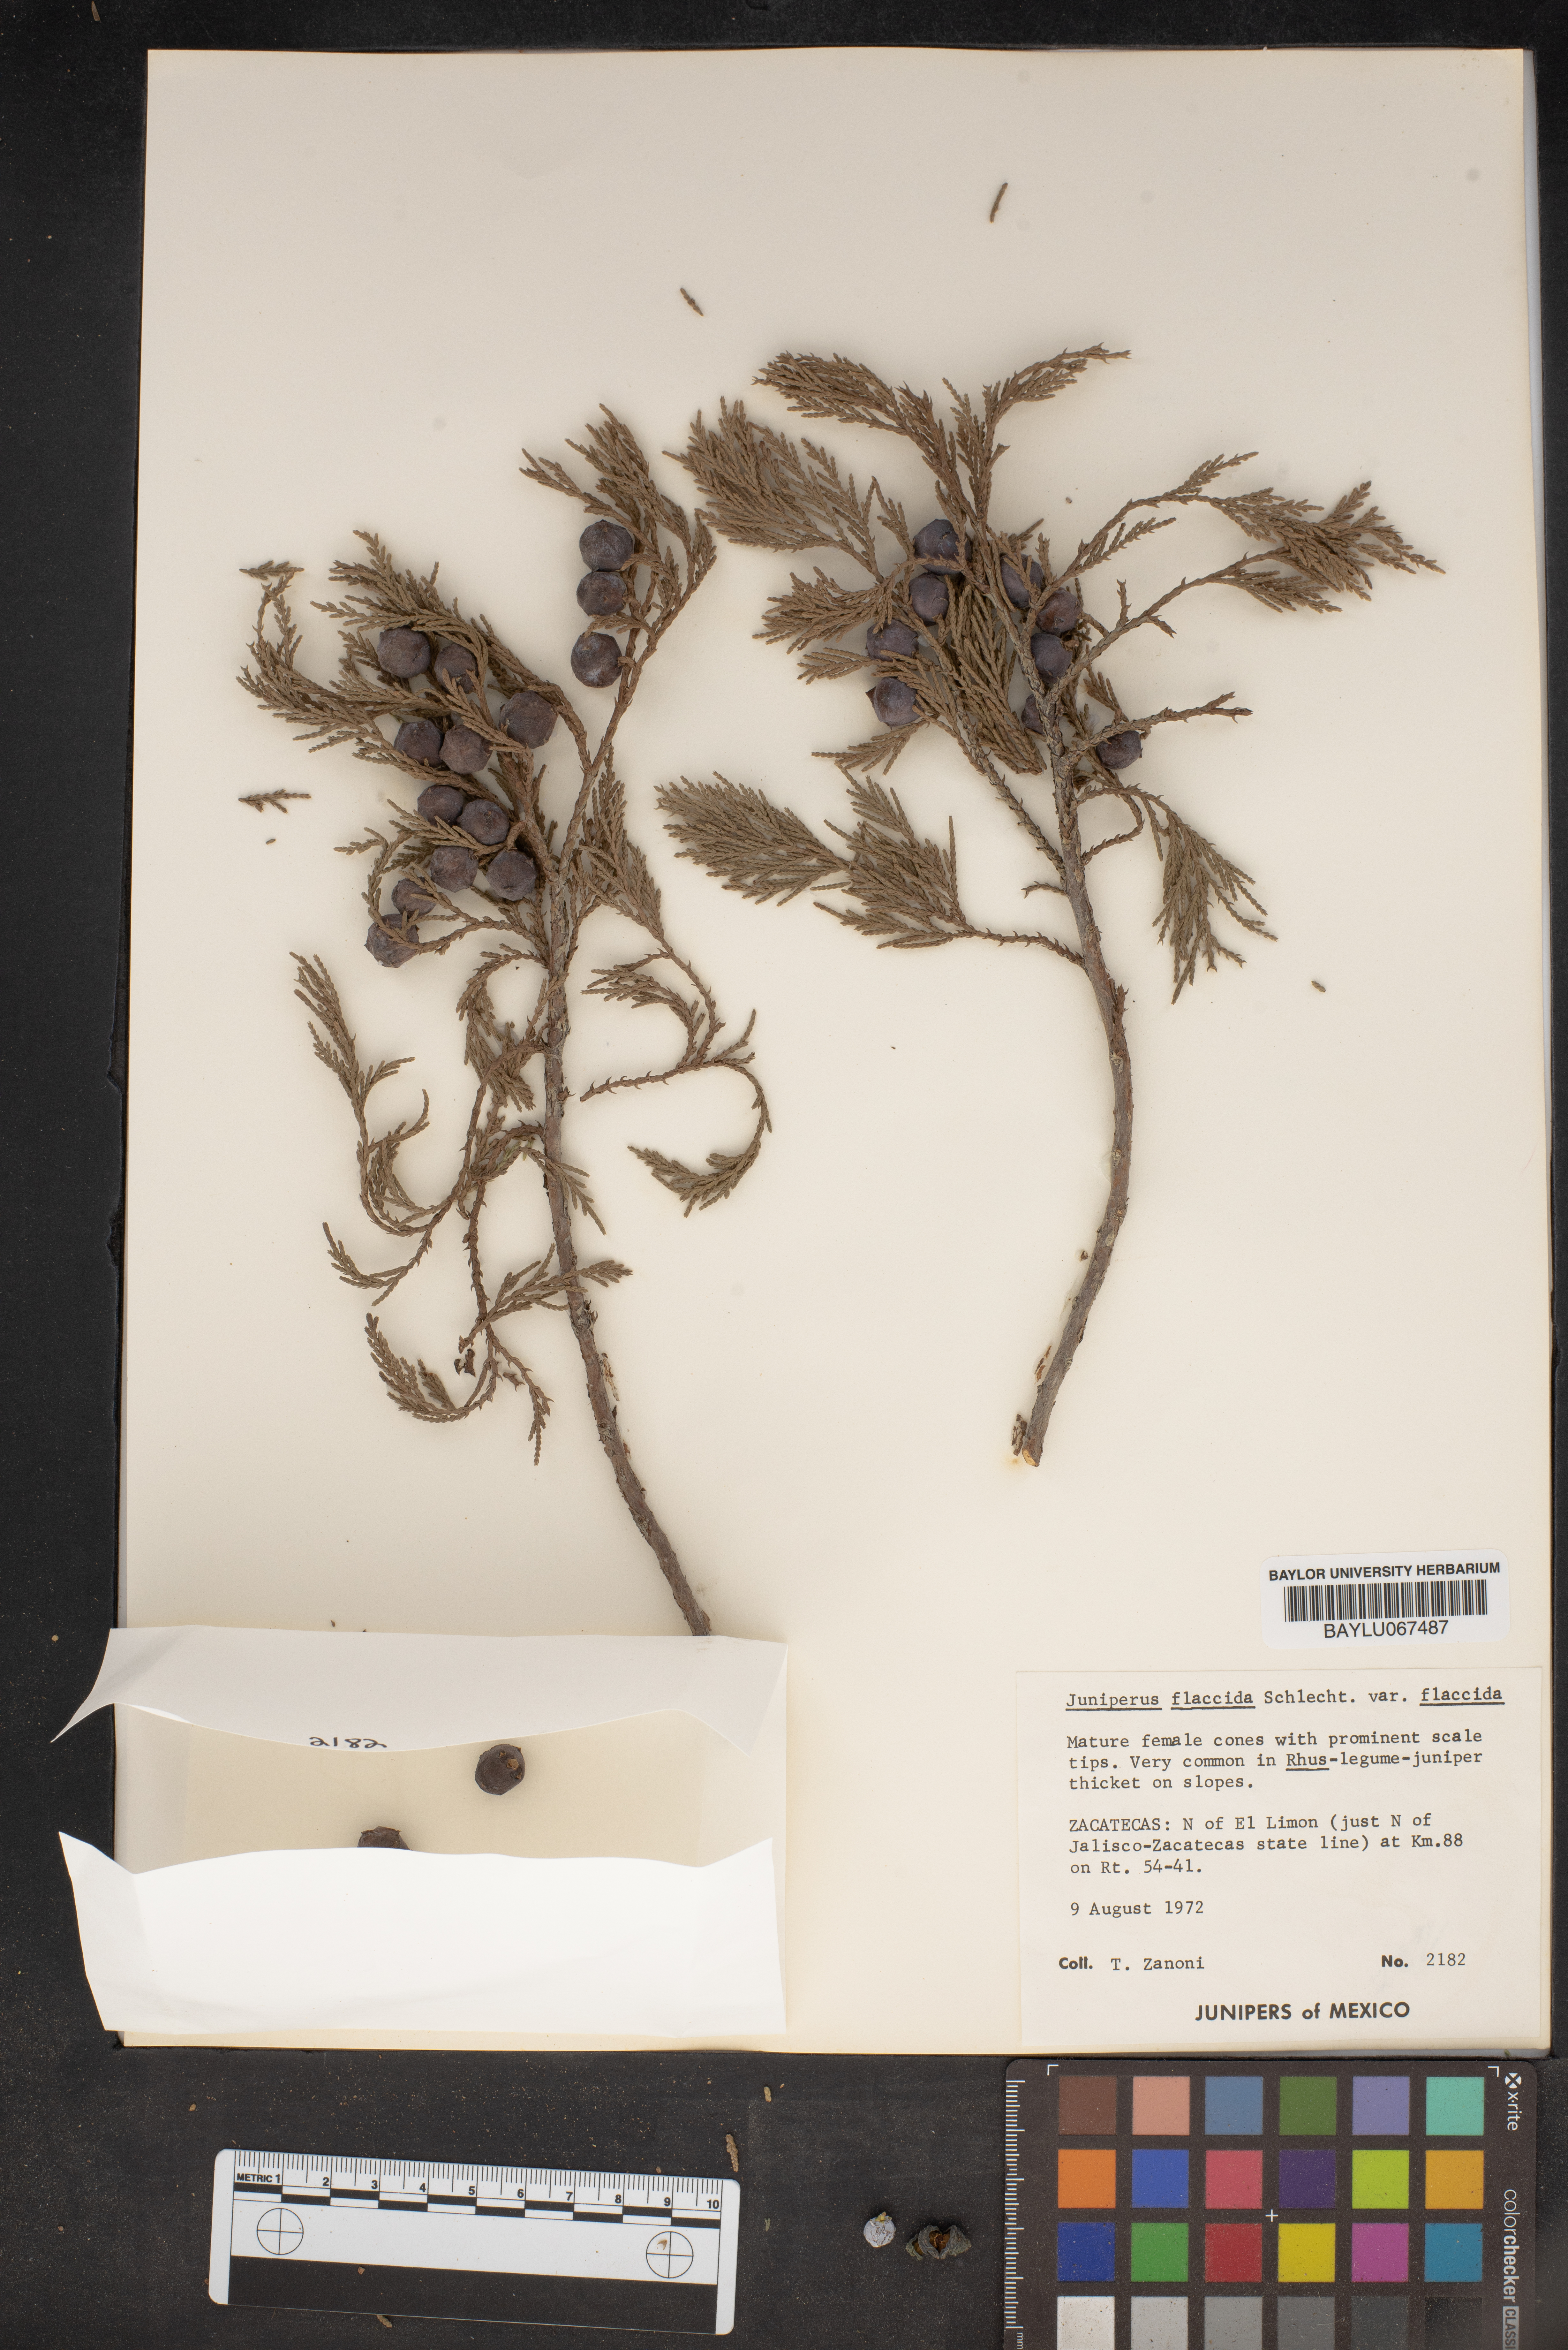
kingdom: Plantae
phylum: Tracheophyta
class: Pinopsida
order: Pinales
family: Cupressaceae
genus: Juniperus
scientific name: Juniperus flaccida
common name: Drooping juniper
